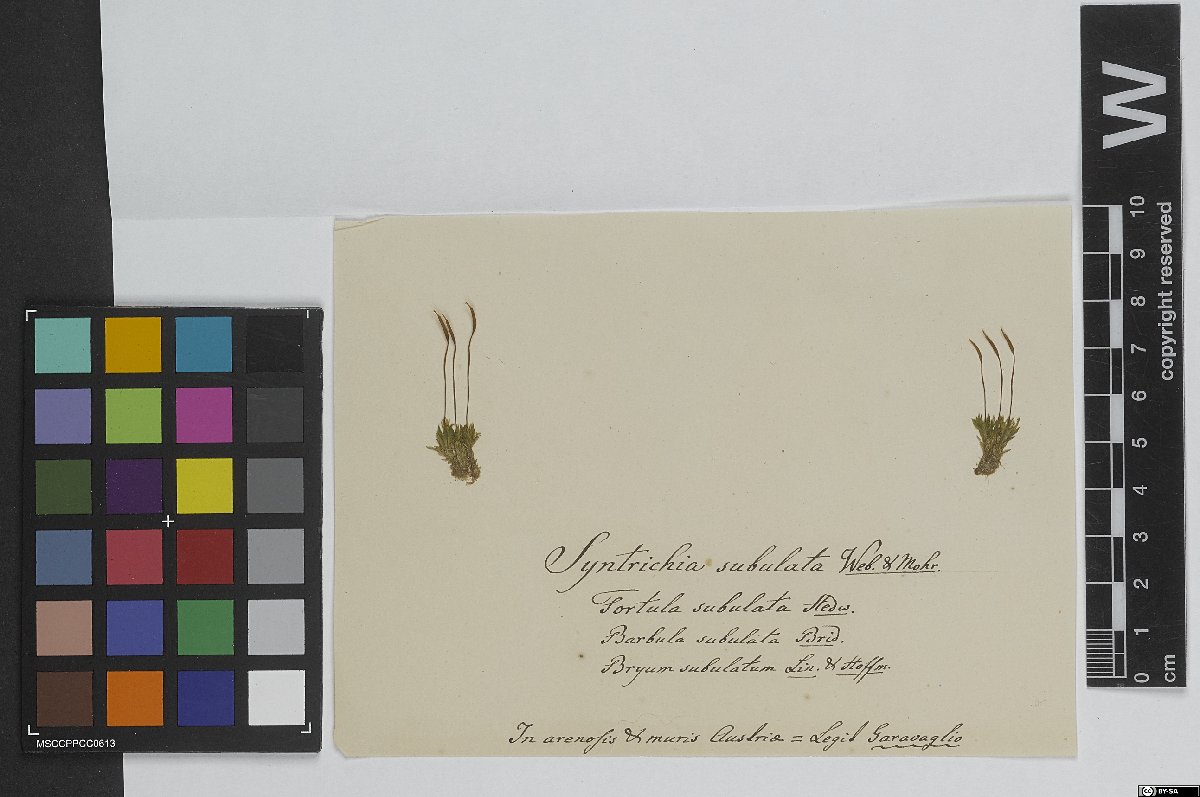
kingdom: Plantae
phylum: Bryophyta
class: Bryopsida
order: Pottiales
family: Pottiaceae
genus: Tortula
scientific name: Tortula subulata
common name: Upright screw-moss
